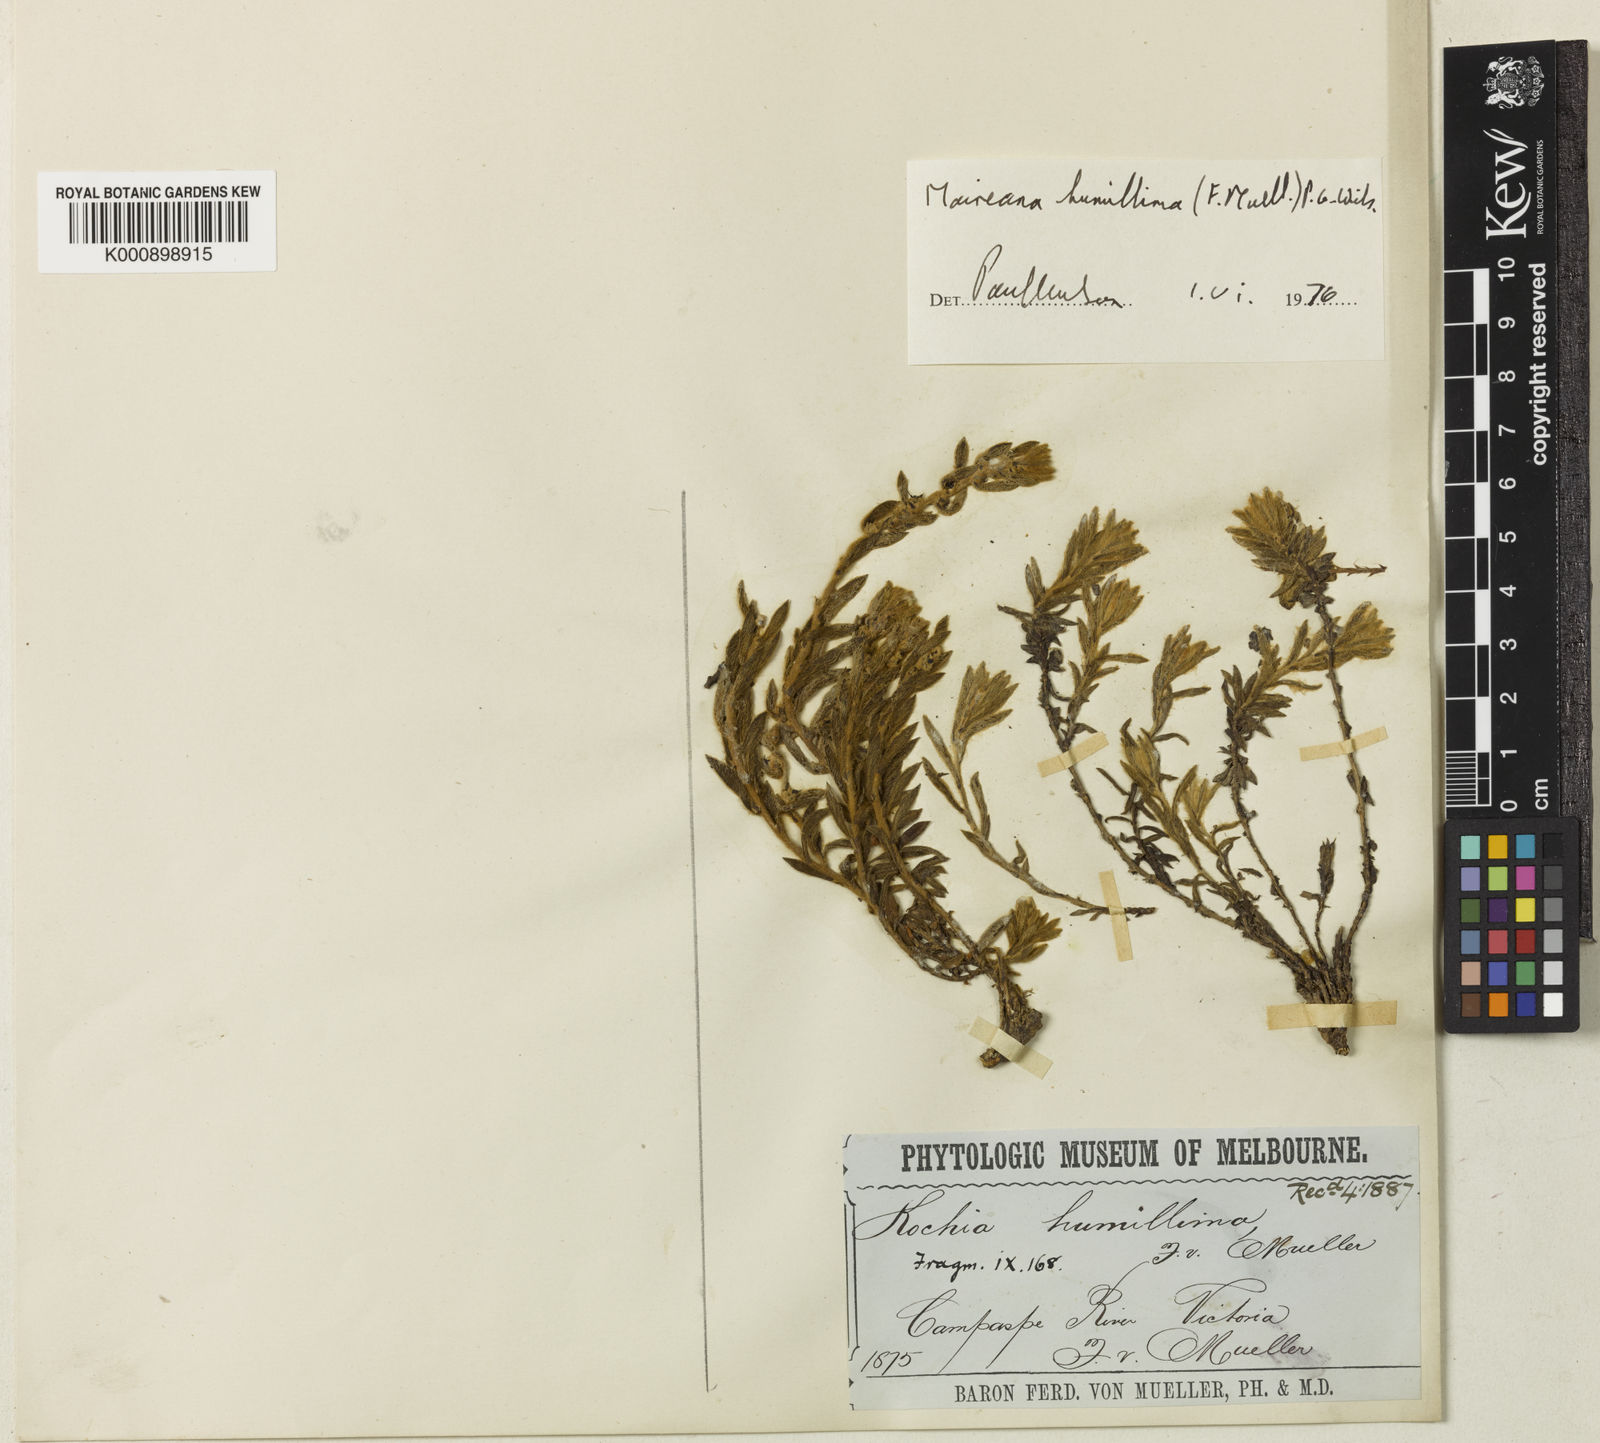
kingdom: Plantae
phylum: Tracheophyta
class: Magnoliopsida
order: Caryophyllales
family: Amaranthaceae
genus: Maireana
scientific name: Maireana humillima
